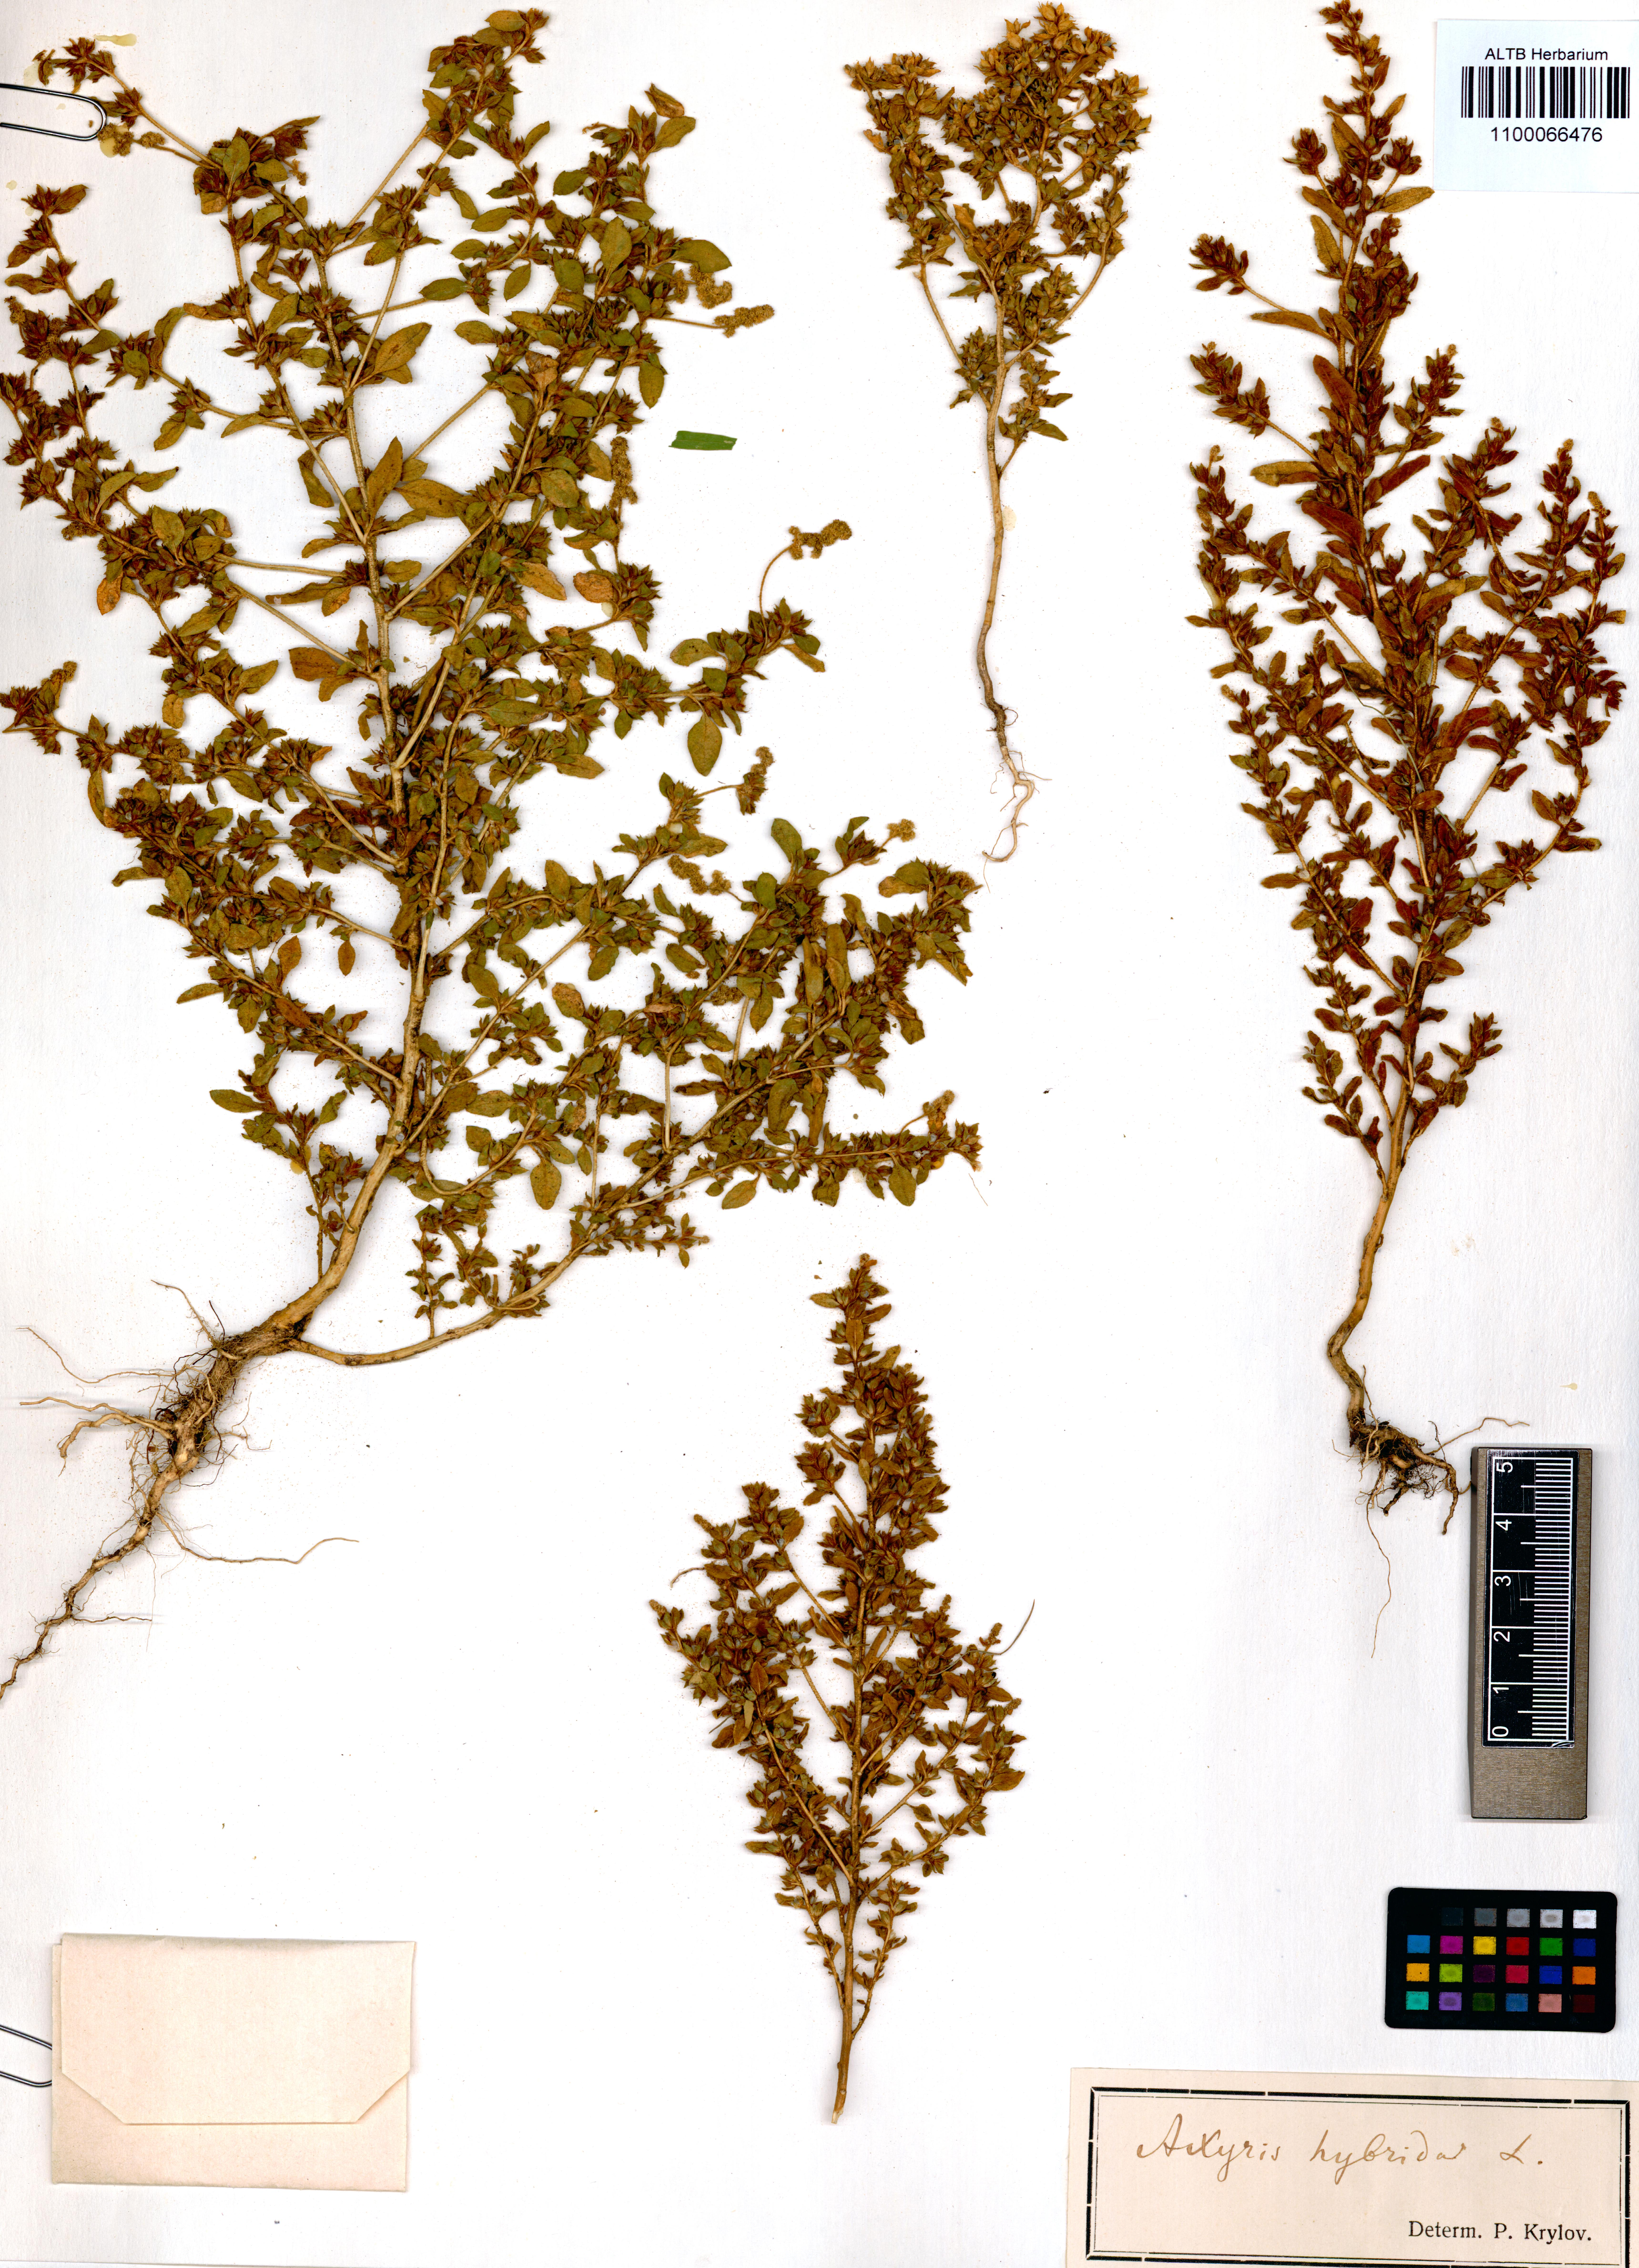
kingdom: Plantae
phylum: Tracheophyta
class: Magnoliopsida
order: Caryophyllales
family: Amaranthaceae
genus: Axyris
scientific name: Axyris hybrida
